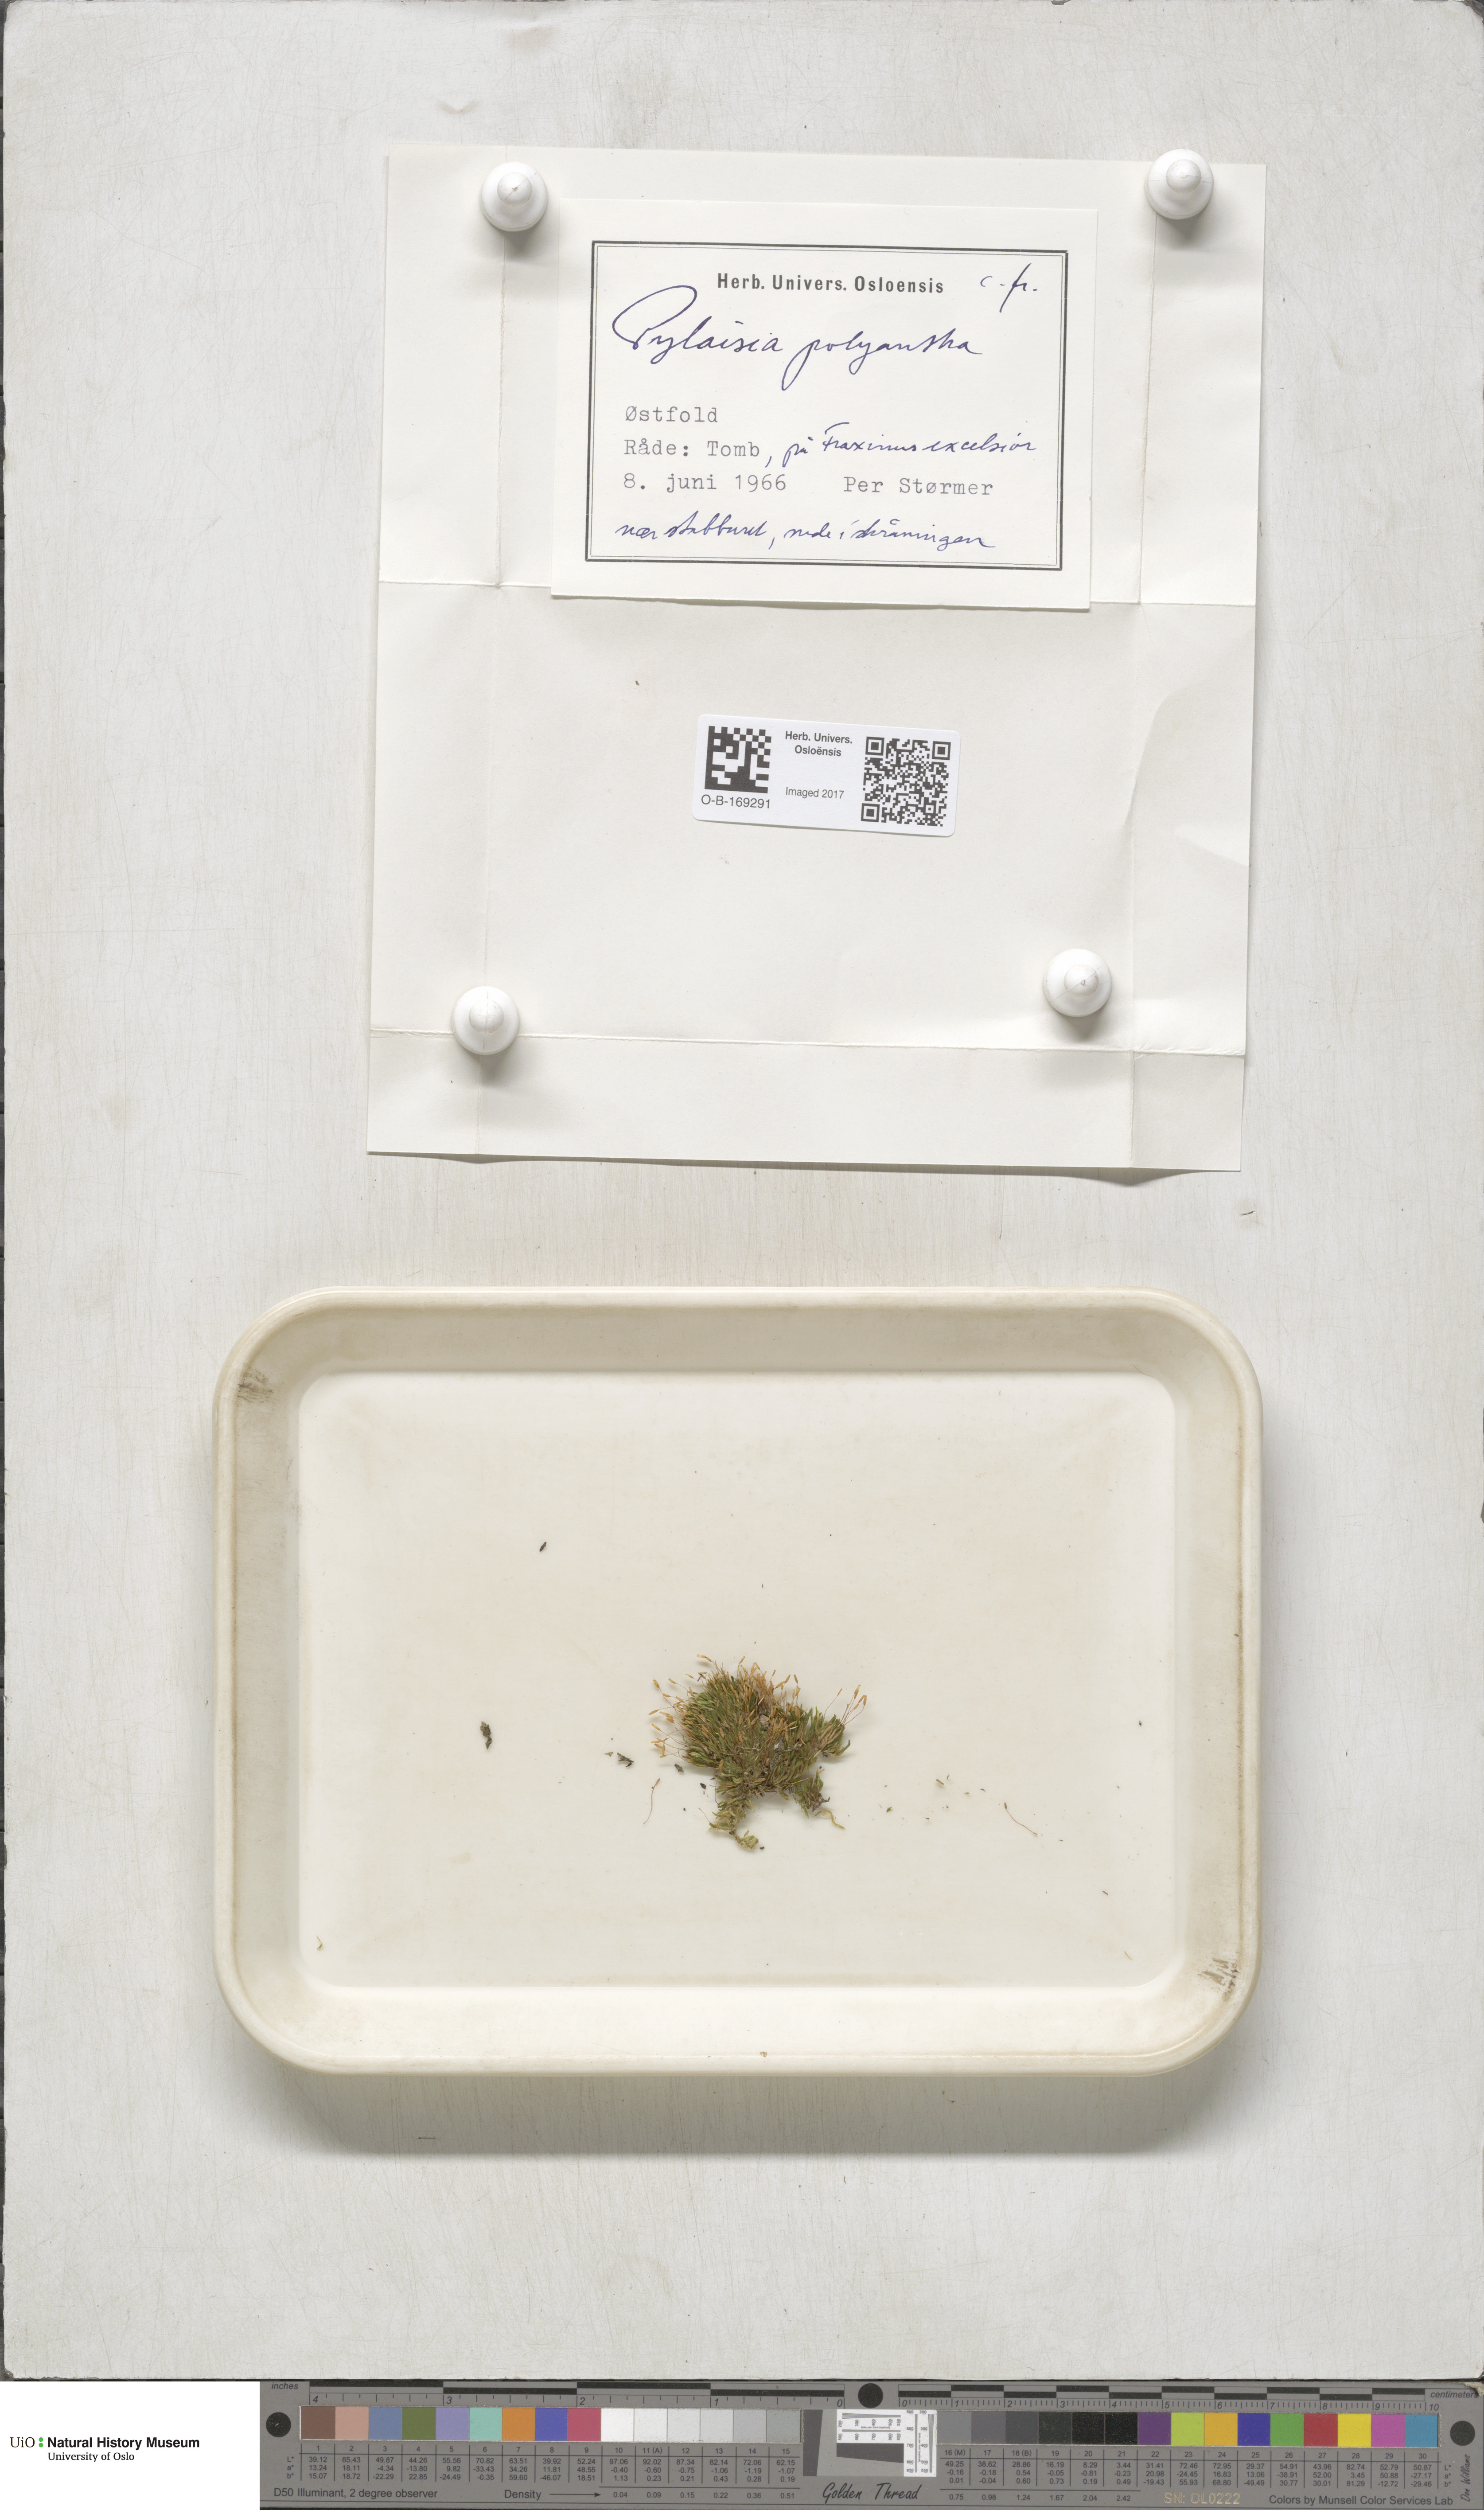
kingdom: Plantae
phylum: Bryophyta
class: Bryopsida
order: Hypnales
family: Pylaisiaceae
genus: Pylaisia
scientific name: Pylaisia polyantha
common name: Many-flowered leskea
